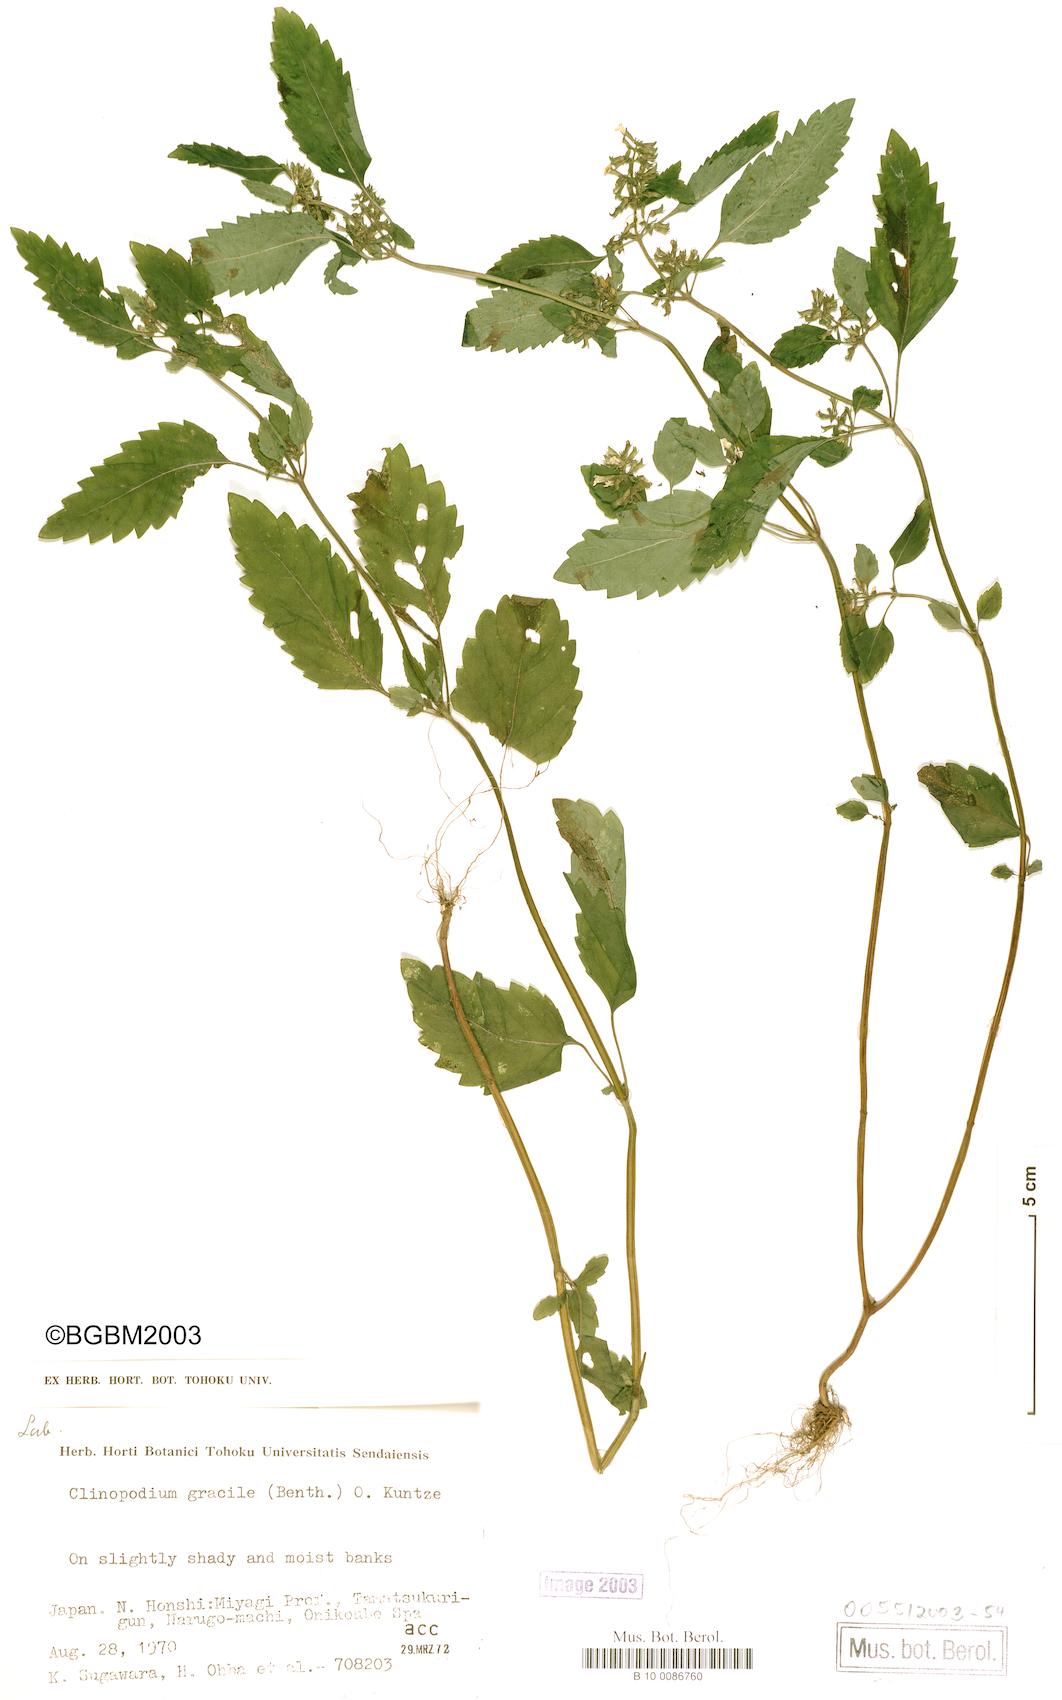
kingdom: Plantae
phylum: Tracheophyta
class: Magnoliopsida
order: Lamiales
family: Lamiaceae
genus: Clinopodium
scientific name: Clinopodium gracile
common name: Slender wild basil
